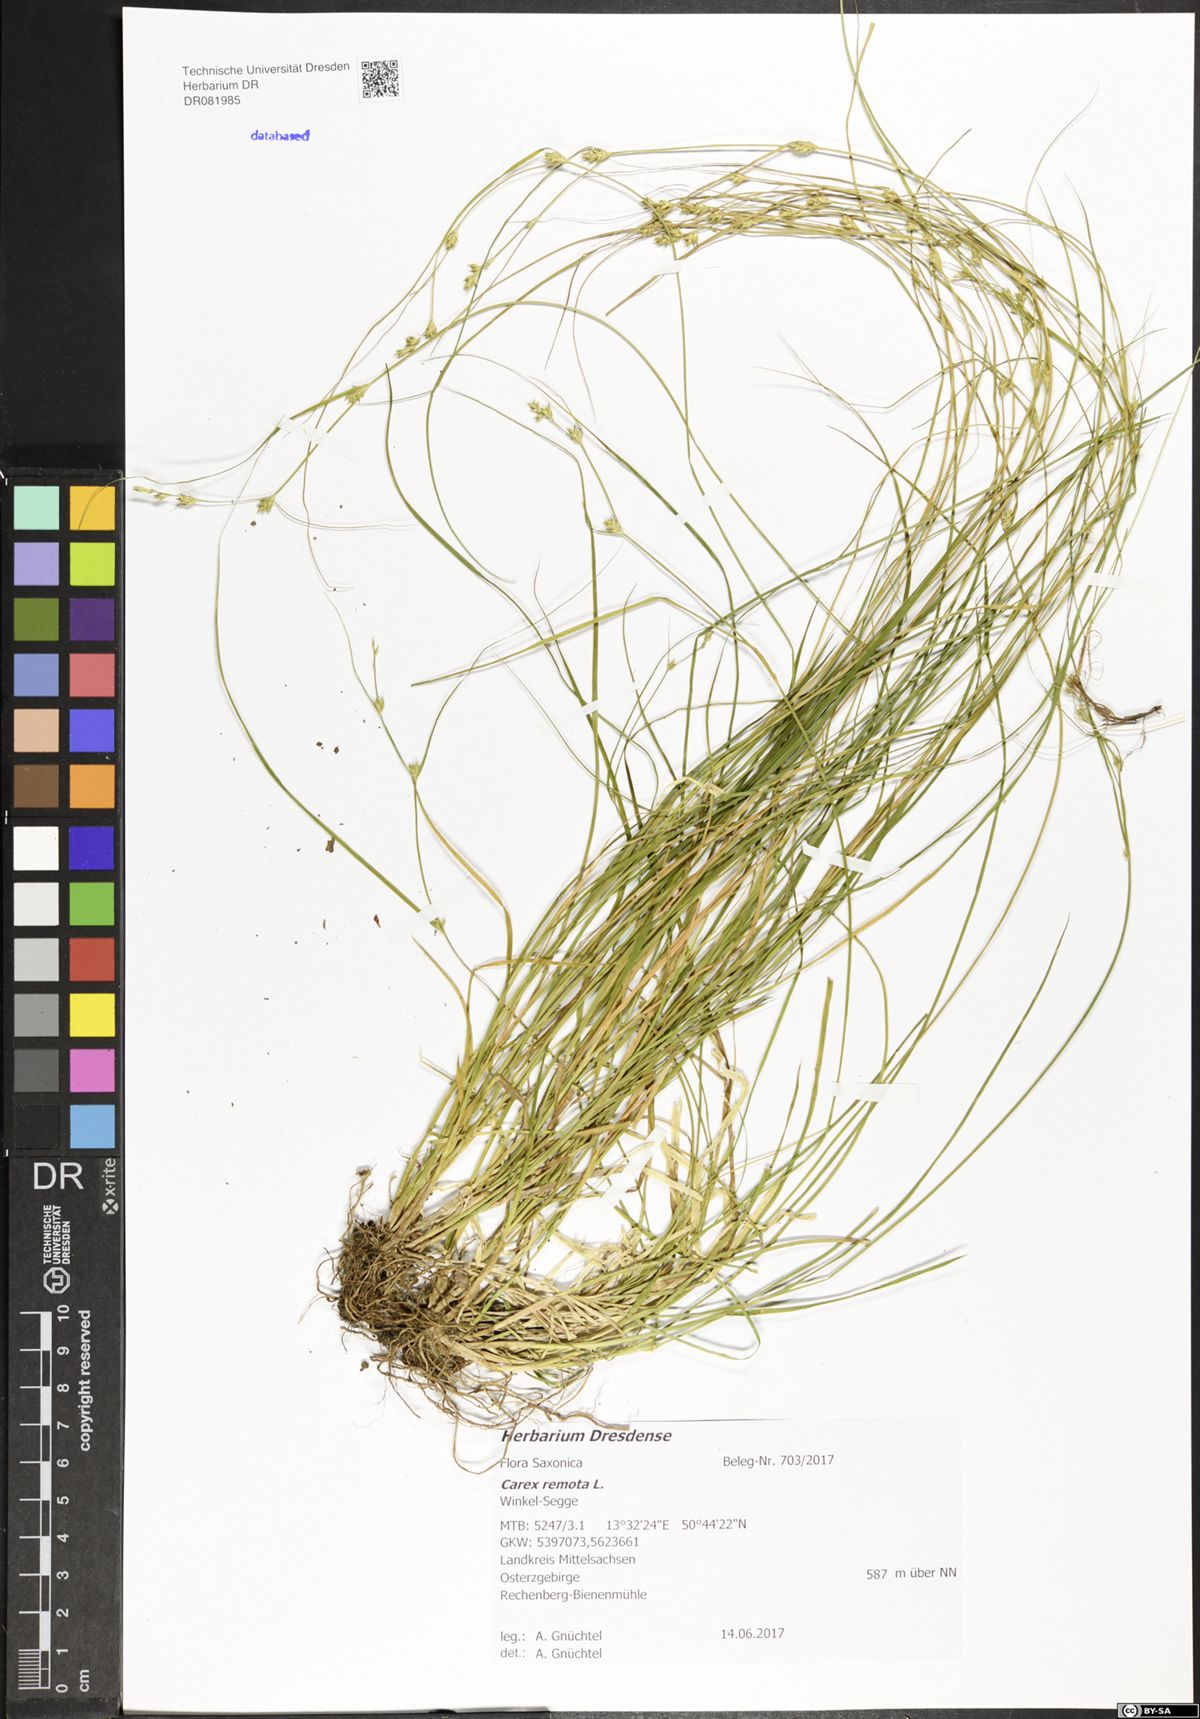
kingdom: Plantae
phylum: Tracheophyta
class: Liliopsida
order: Poales
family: Cyperaceae
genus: Carex
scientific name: Carex remota
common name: Remote sedge
